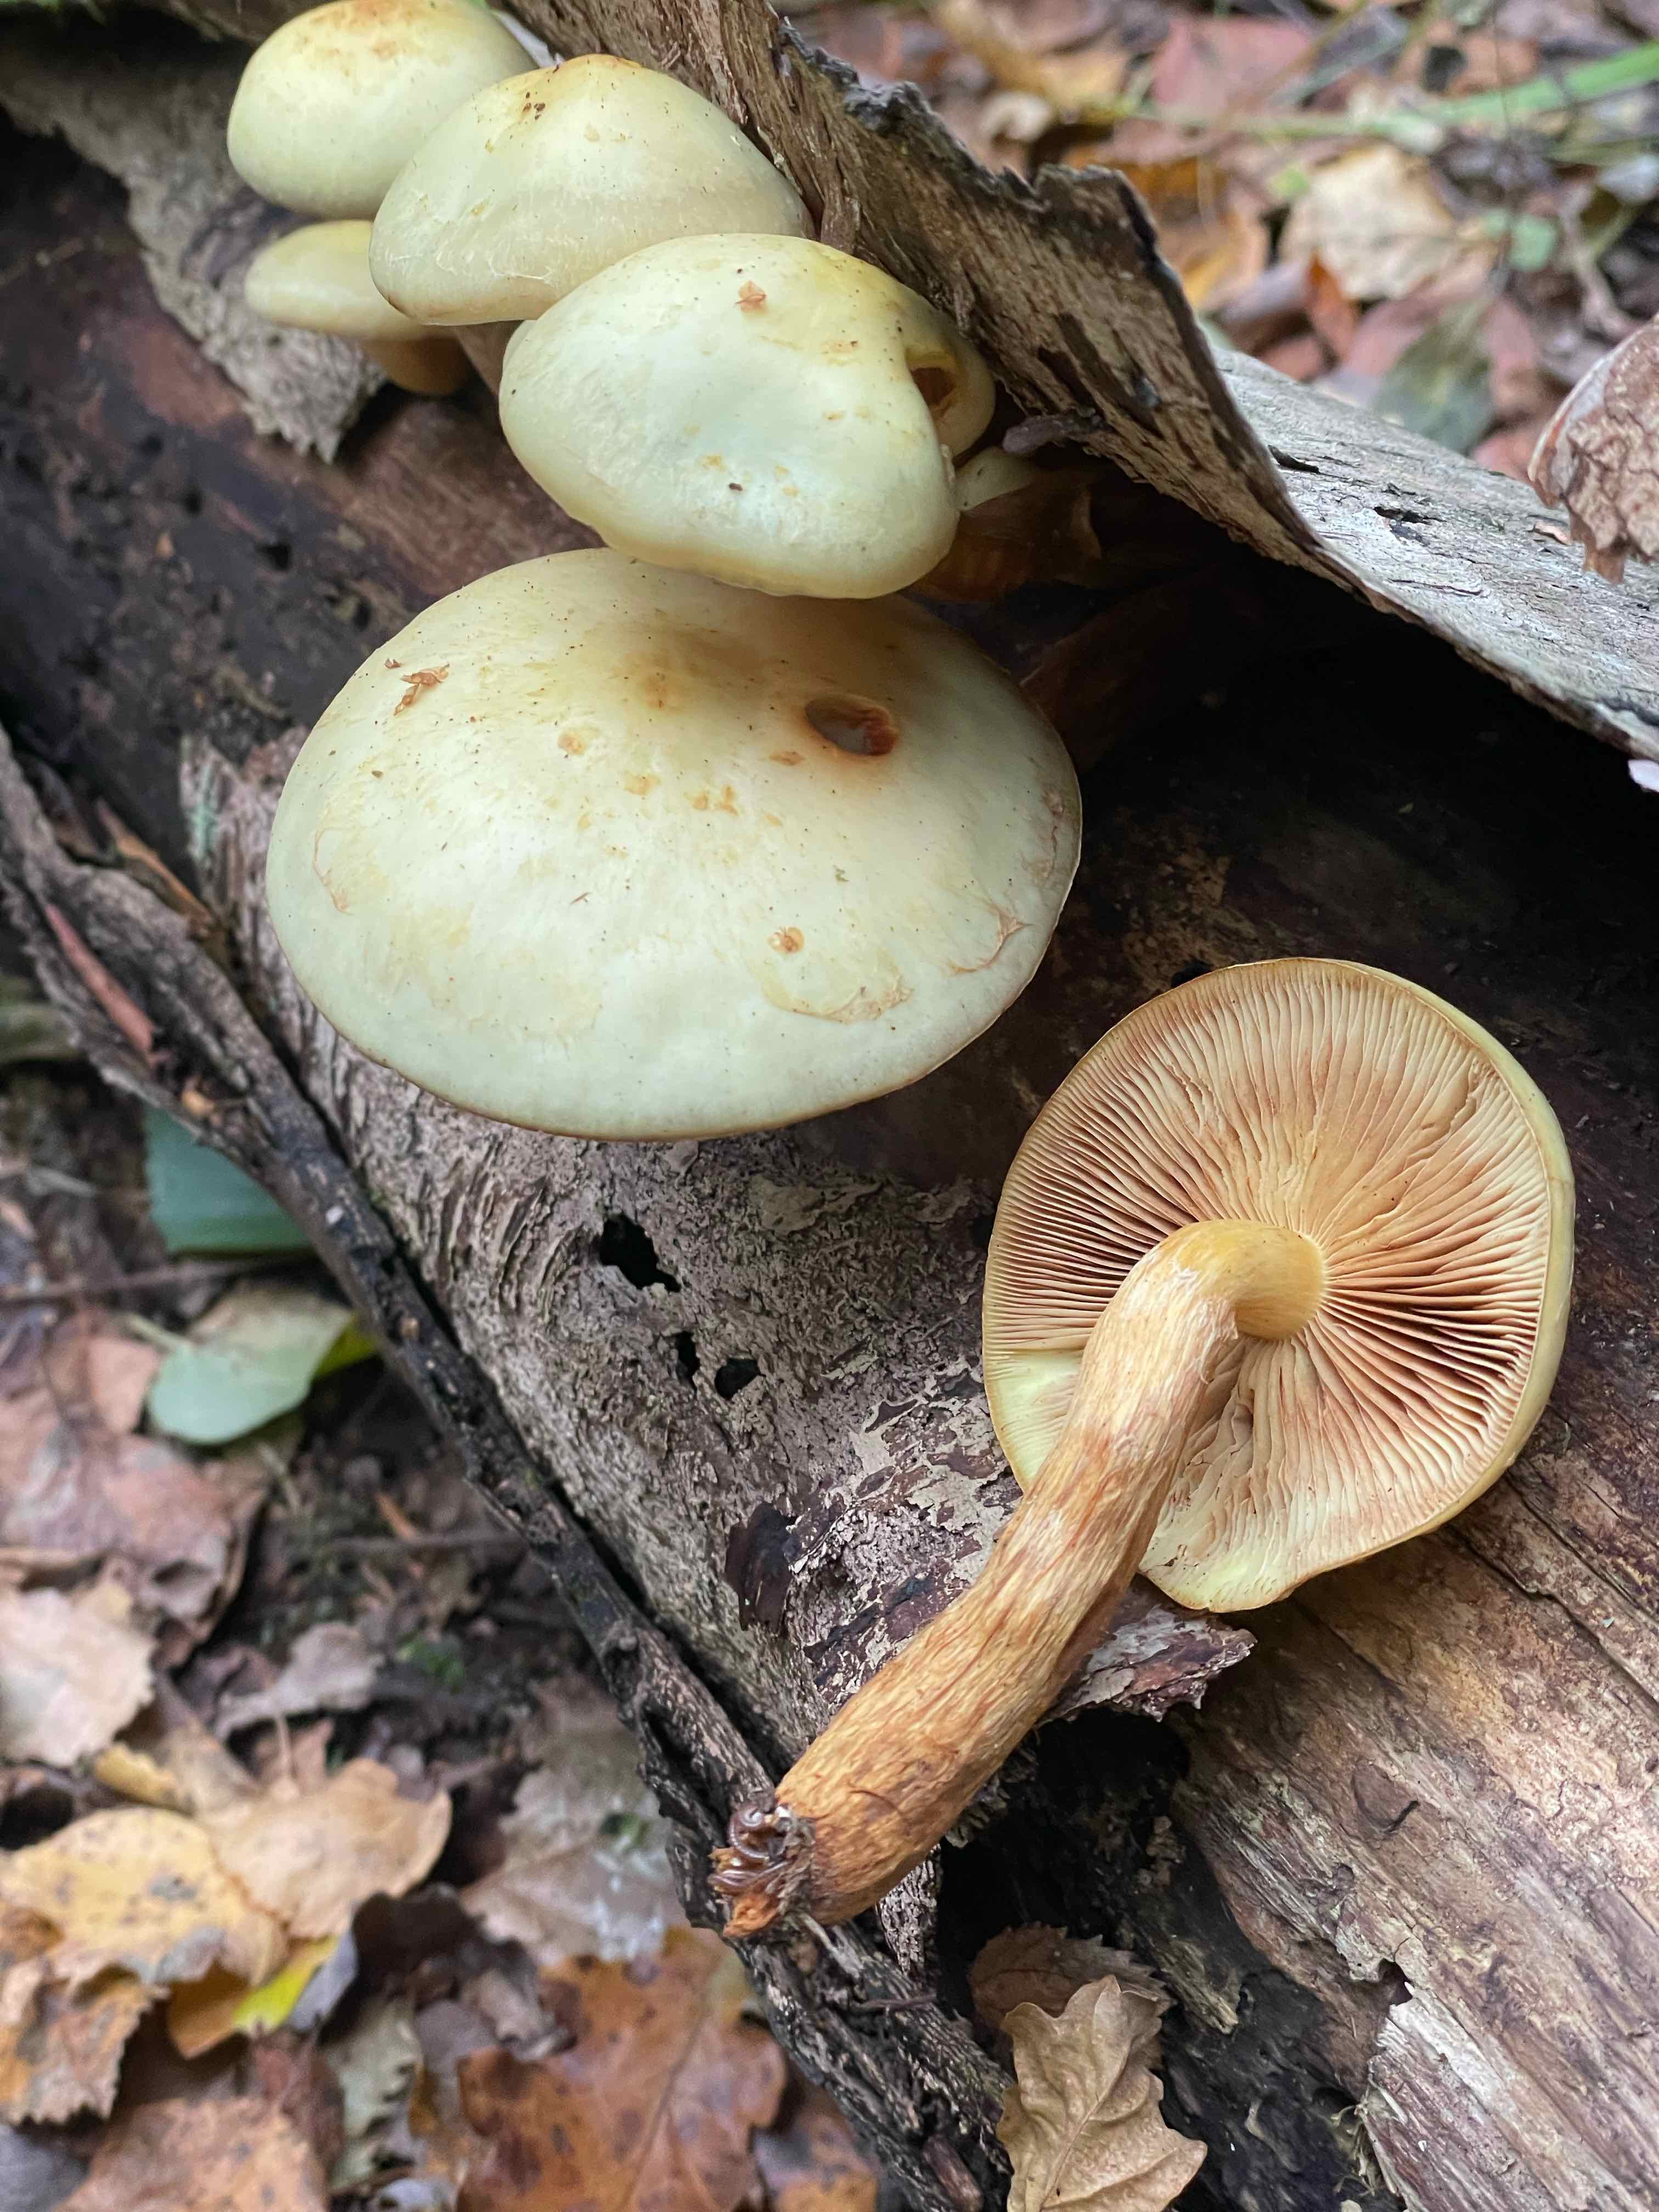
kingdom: Fungi
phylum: Basidiomycota
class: Agaricomycetes
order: Agaricales
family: Hymenogastraceae
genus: Flammula
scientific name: Flammula alnicola
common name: elle-skælhat
